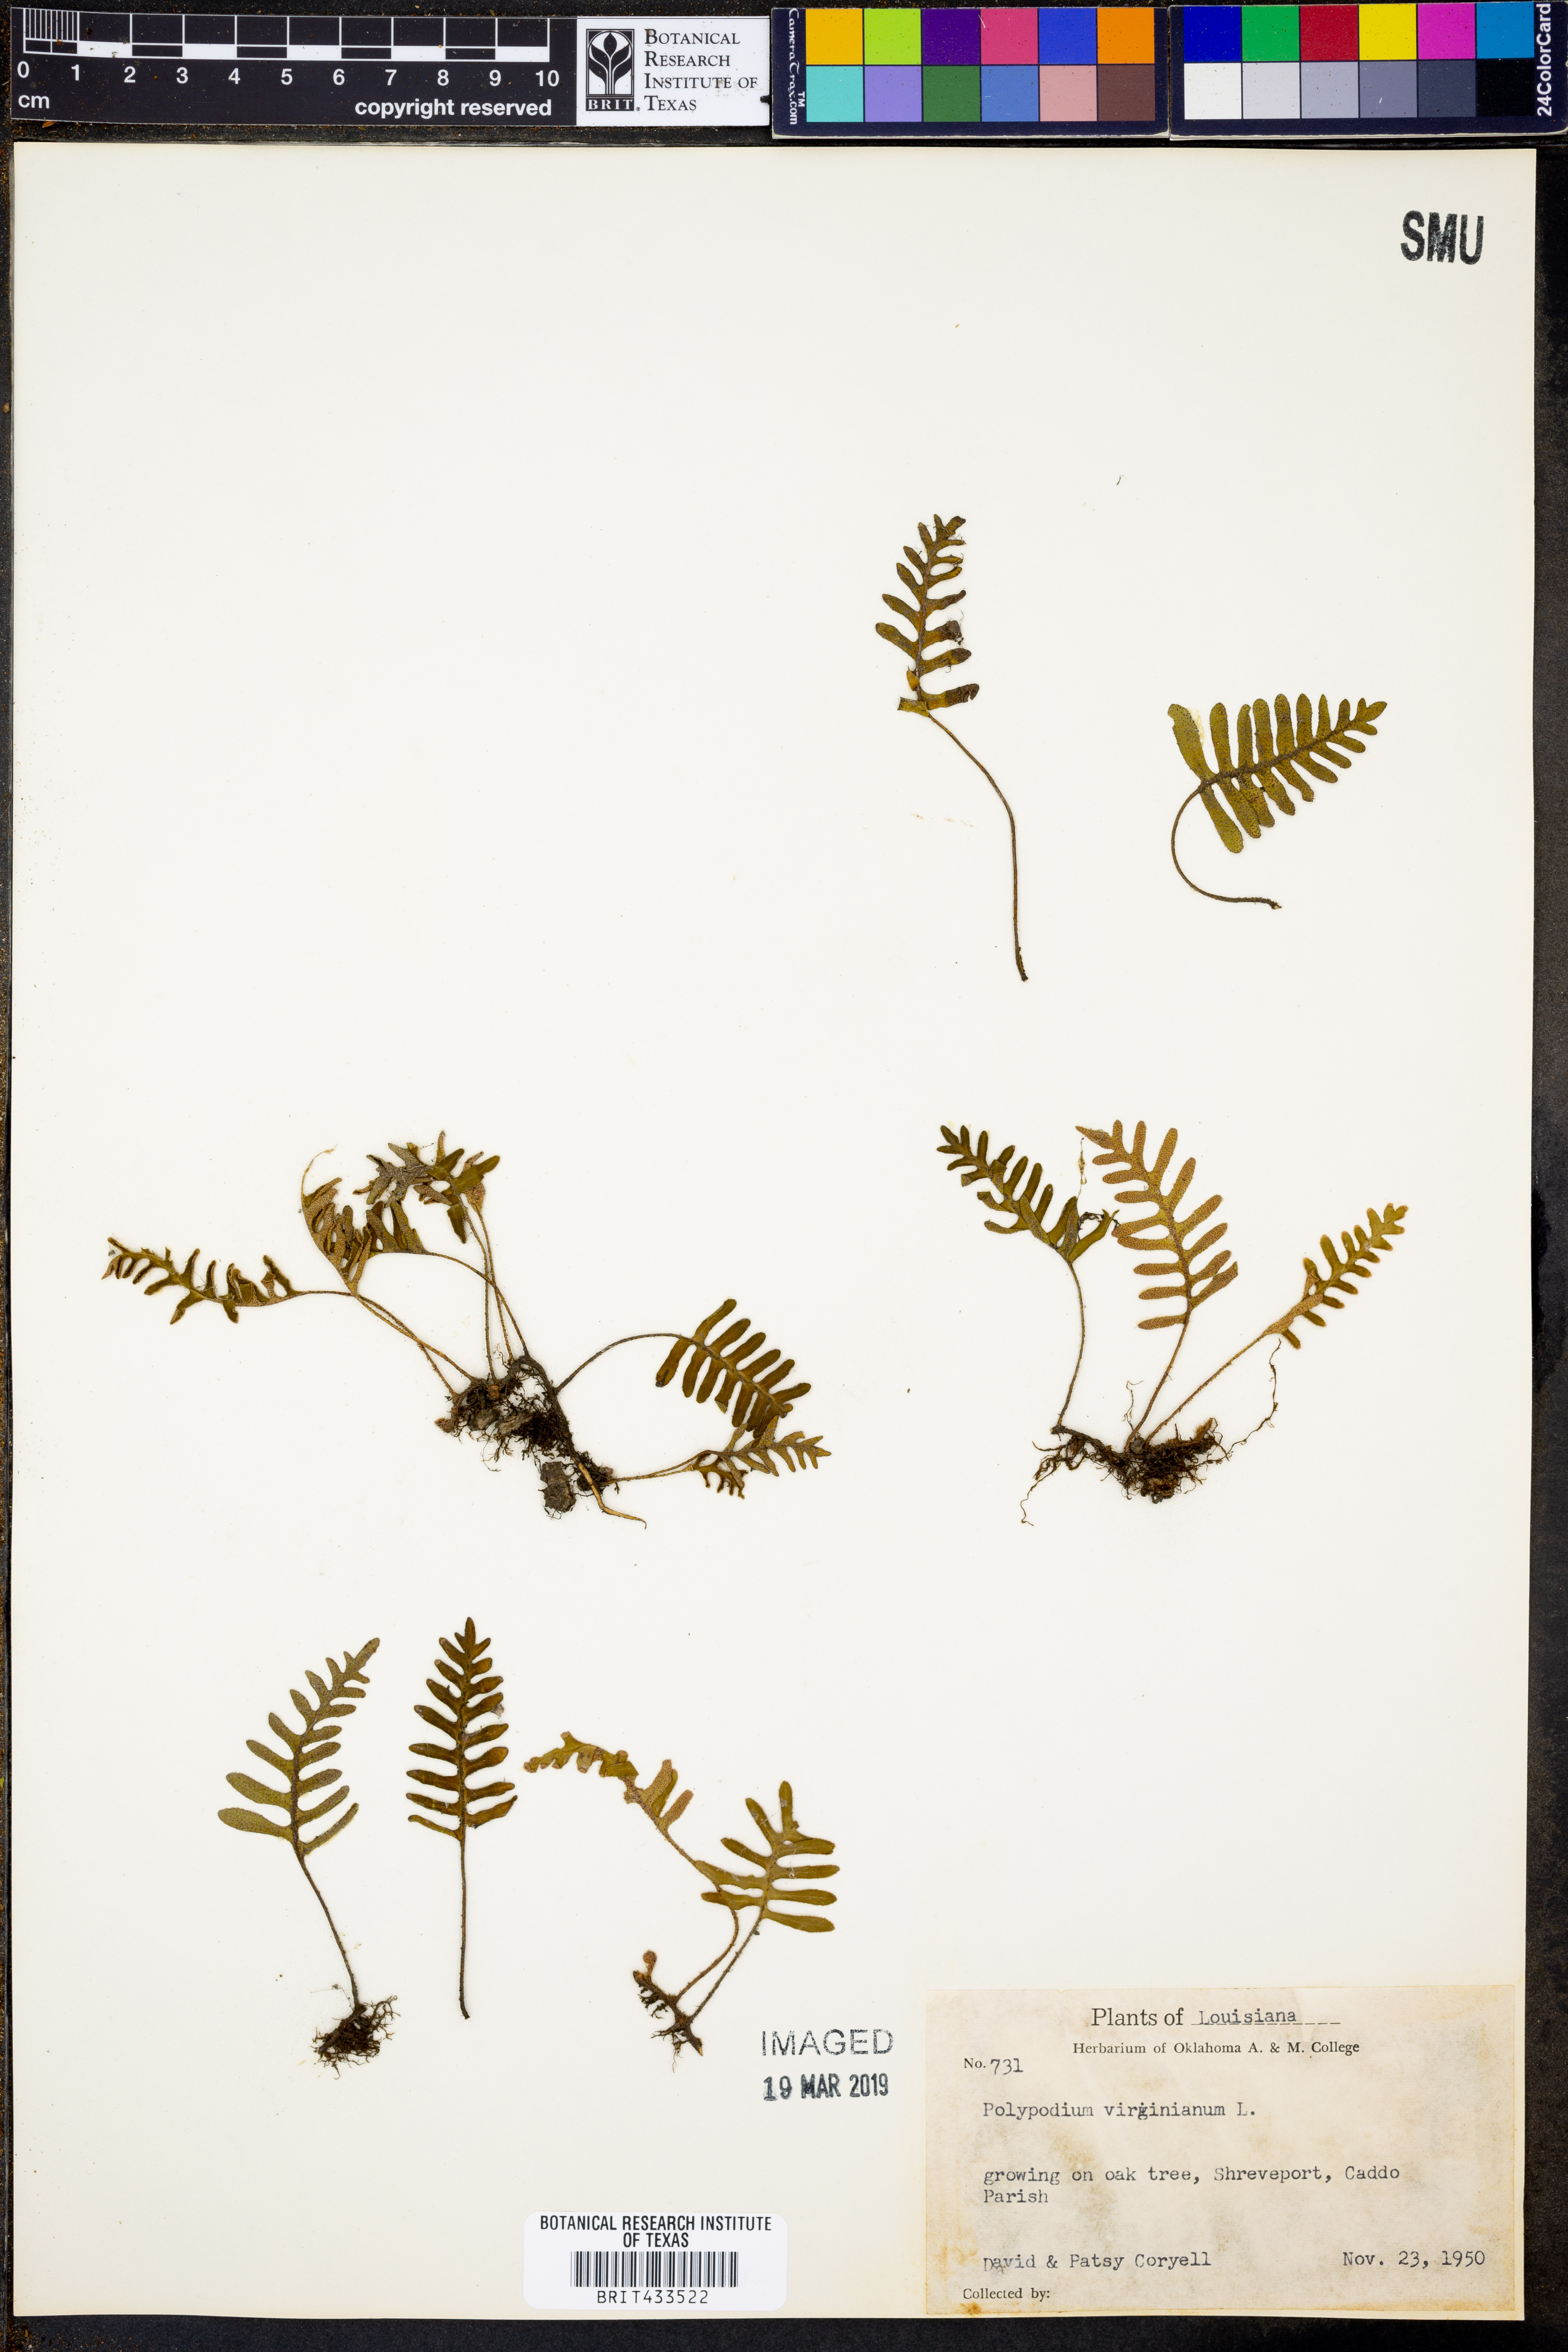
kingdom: Plantae
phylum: Tracheophyta
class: Polypodiopsida
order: Polypodiales
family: Polypodiaceae
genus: Polypodium
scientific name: Polypodium virginianum
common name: American wall fern
